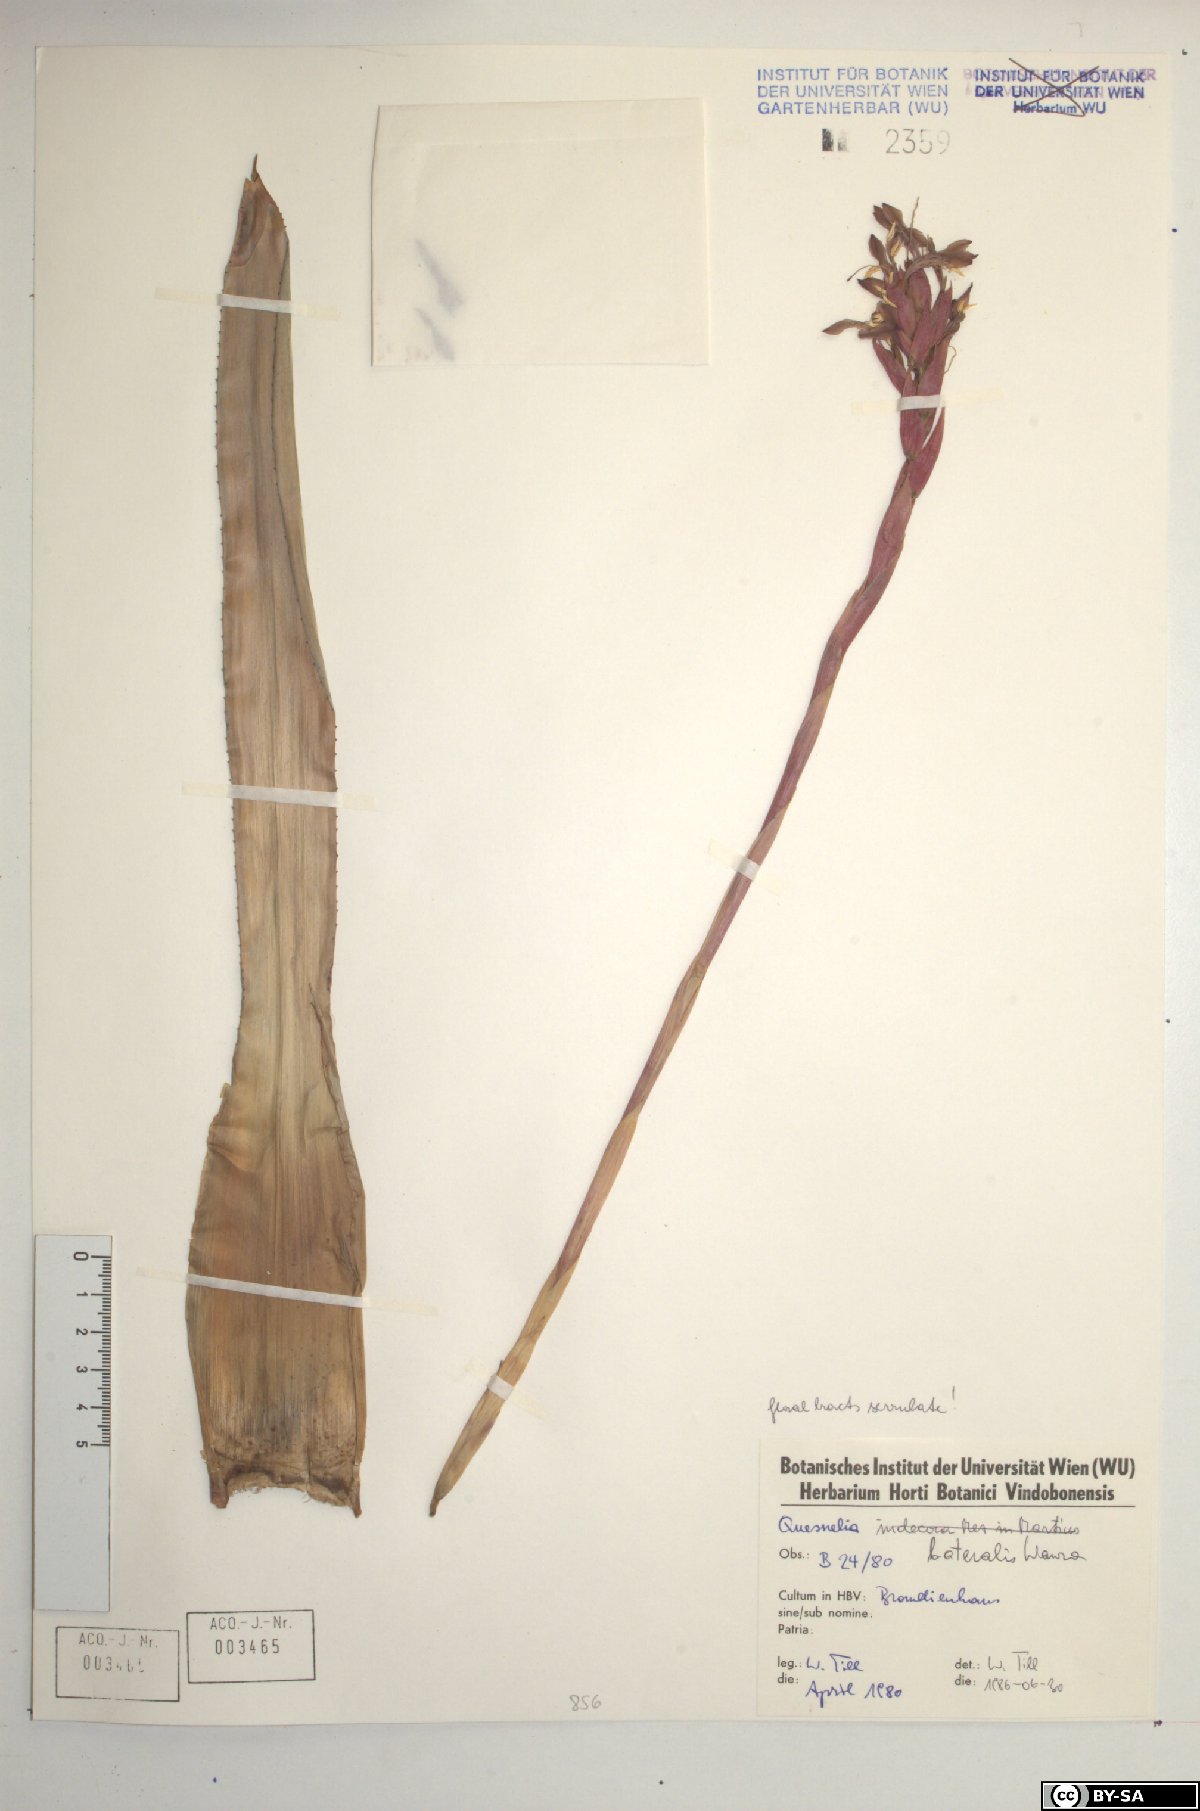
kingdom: Plantae
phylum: Tracheophyta
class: Liliopsida
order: Poales
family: Bromeliaceae
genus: Quesnelia
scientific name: Quesnelia lateralis
